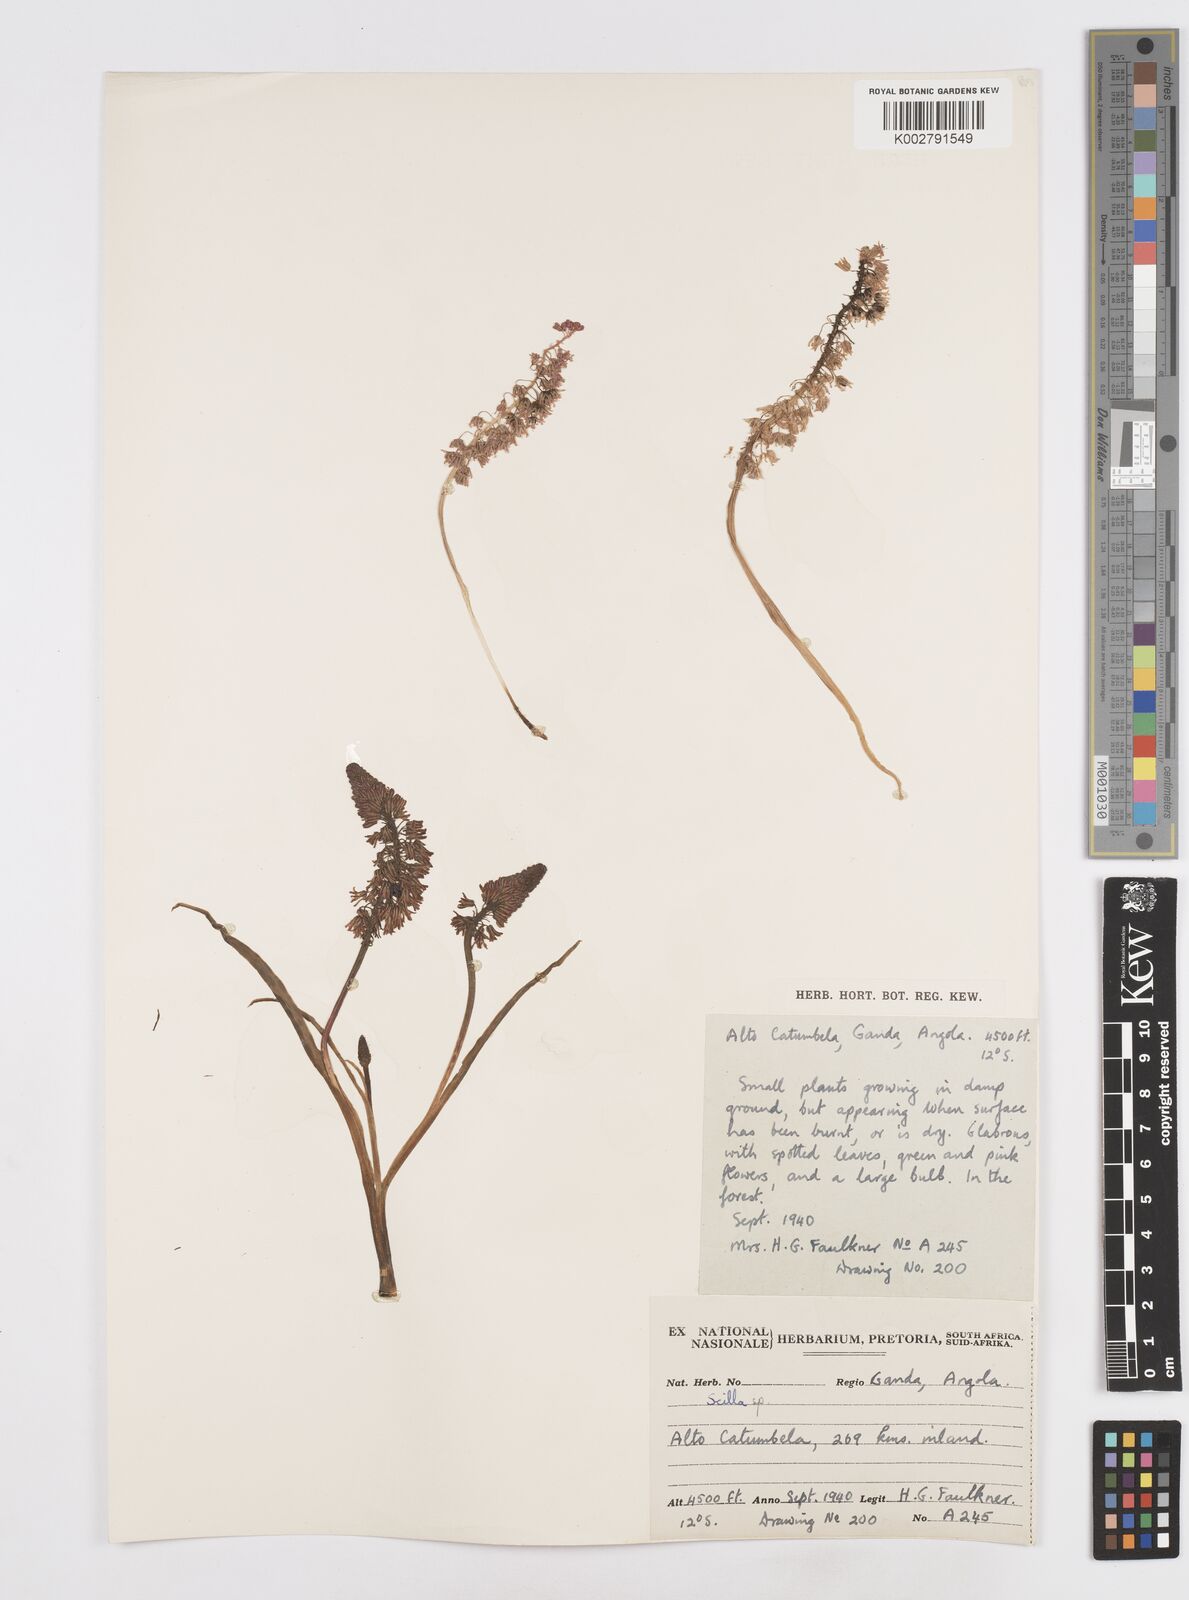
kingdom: Plantae
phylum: Tracheophyta
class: Liliopsida
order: Asparagales
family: Asparagaceae
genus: Scilla
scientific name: Scilla
